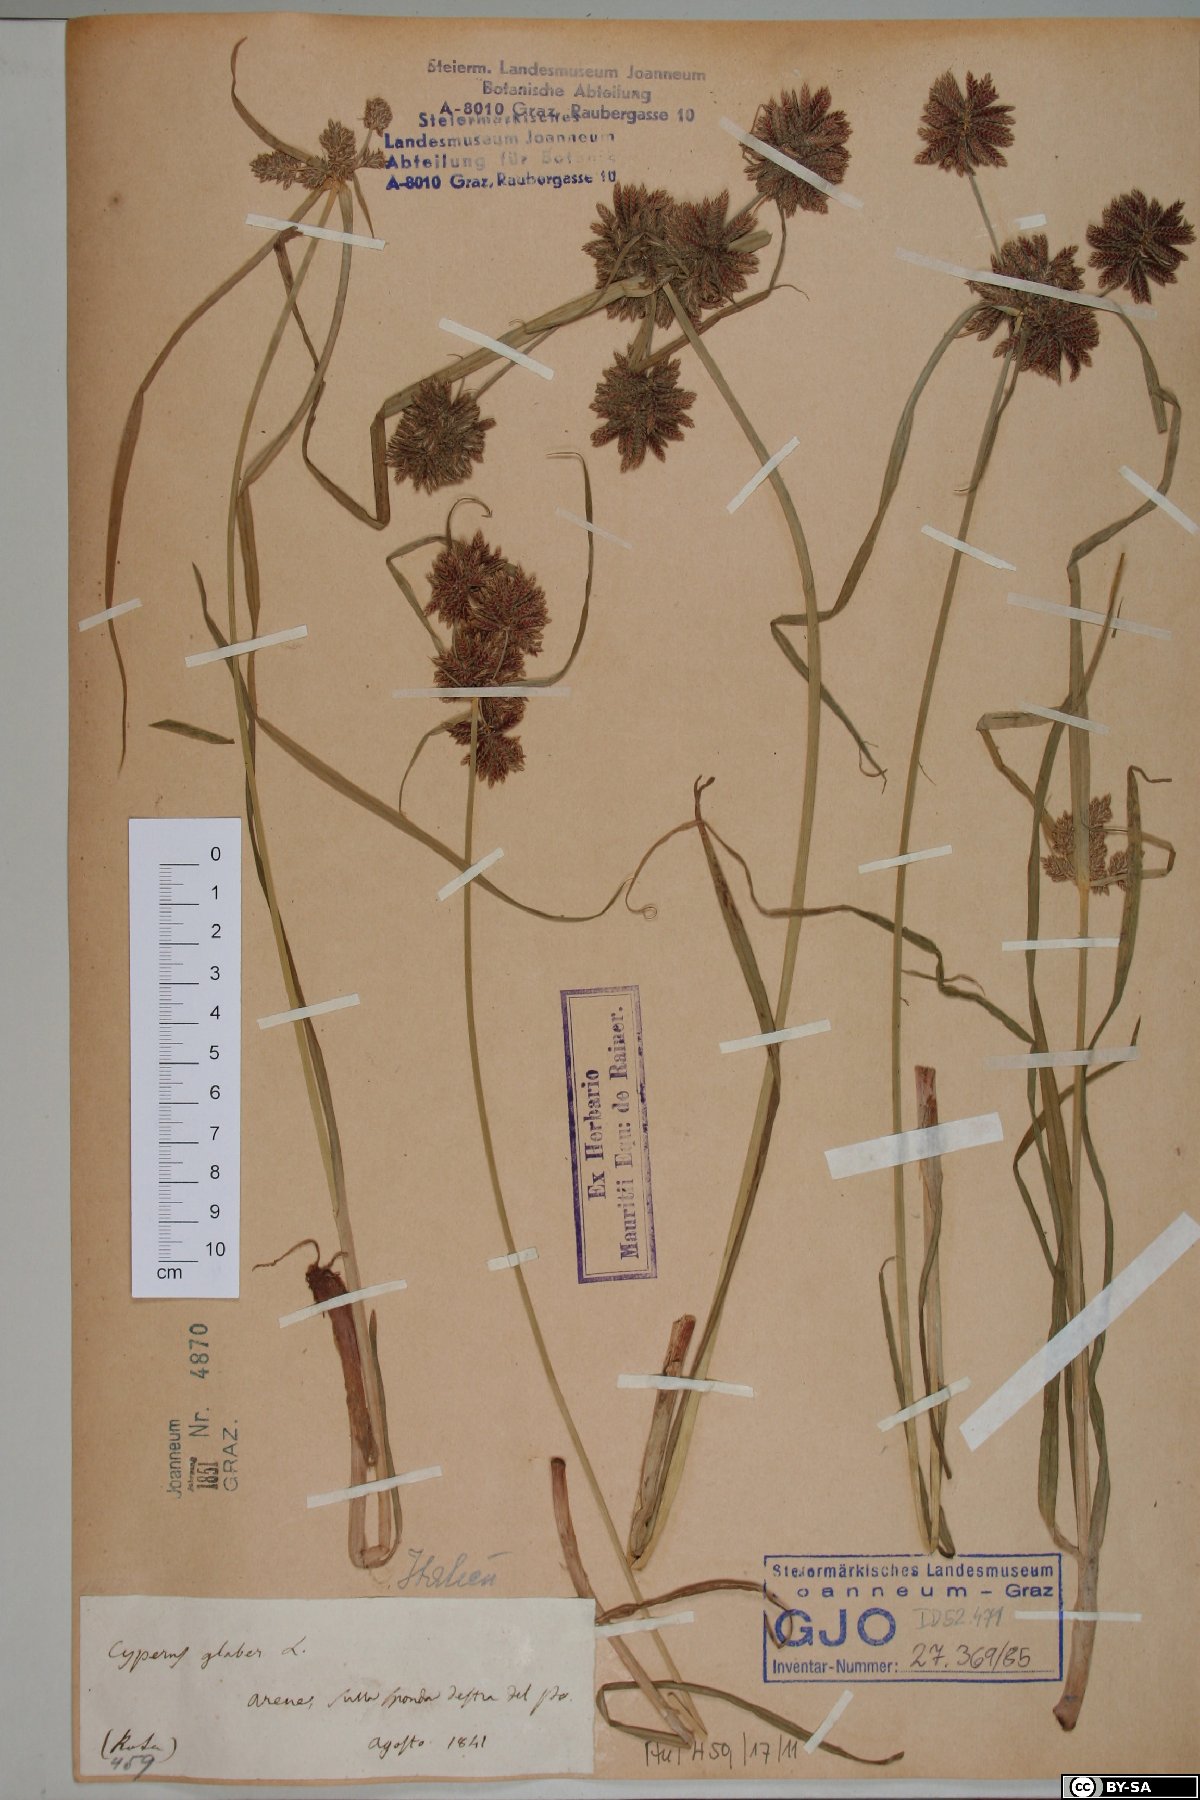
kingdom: Plantae
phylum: Tracheophyta
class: Liliopsida
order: Poales
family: Cyperaceae
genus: Cyperus
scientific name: Cyperus glaber
